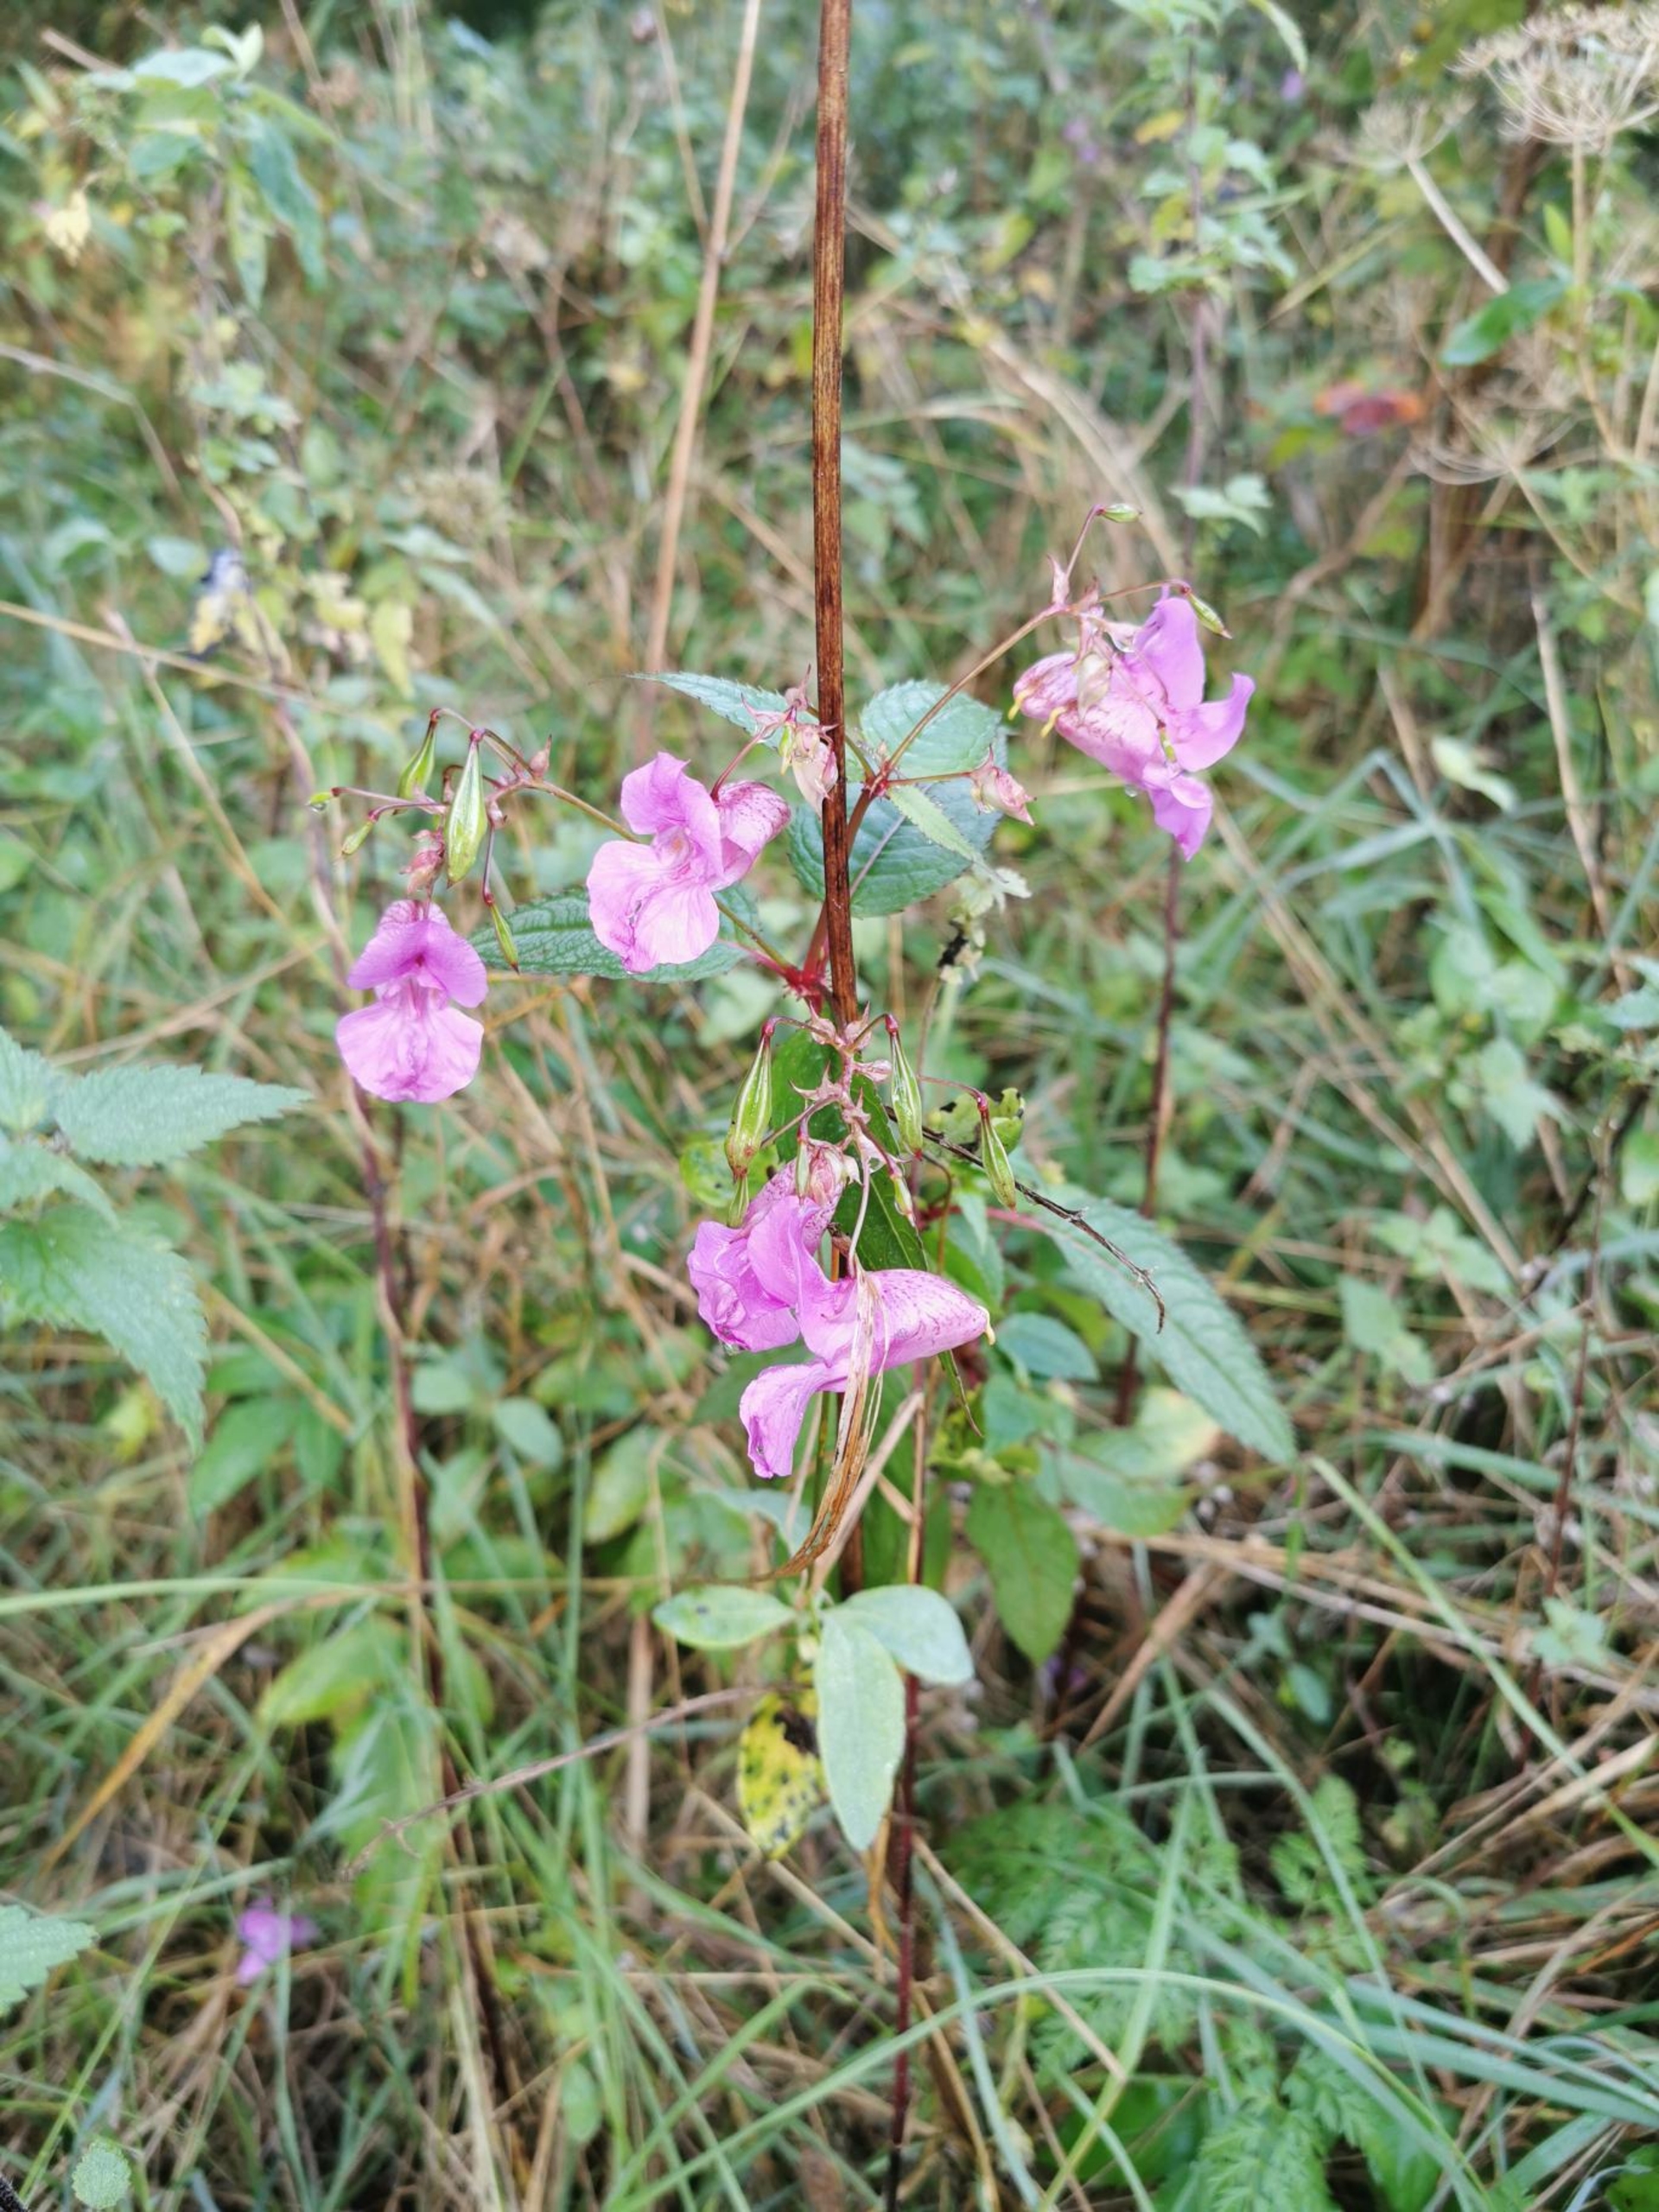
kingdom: Plantae
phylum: Tracheophyta
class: Magnoliopsida
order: Ericales
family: Balsaminaceae
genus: Impatiens
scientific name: Impatiens glandulifera
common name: Kæmpe-balsamin
